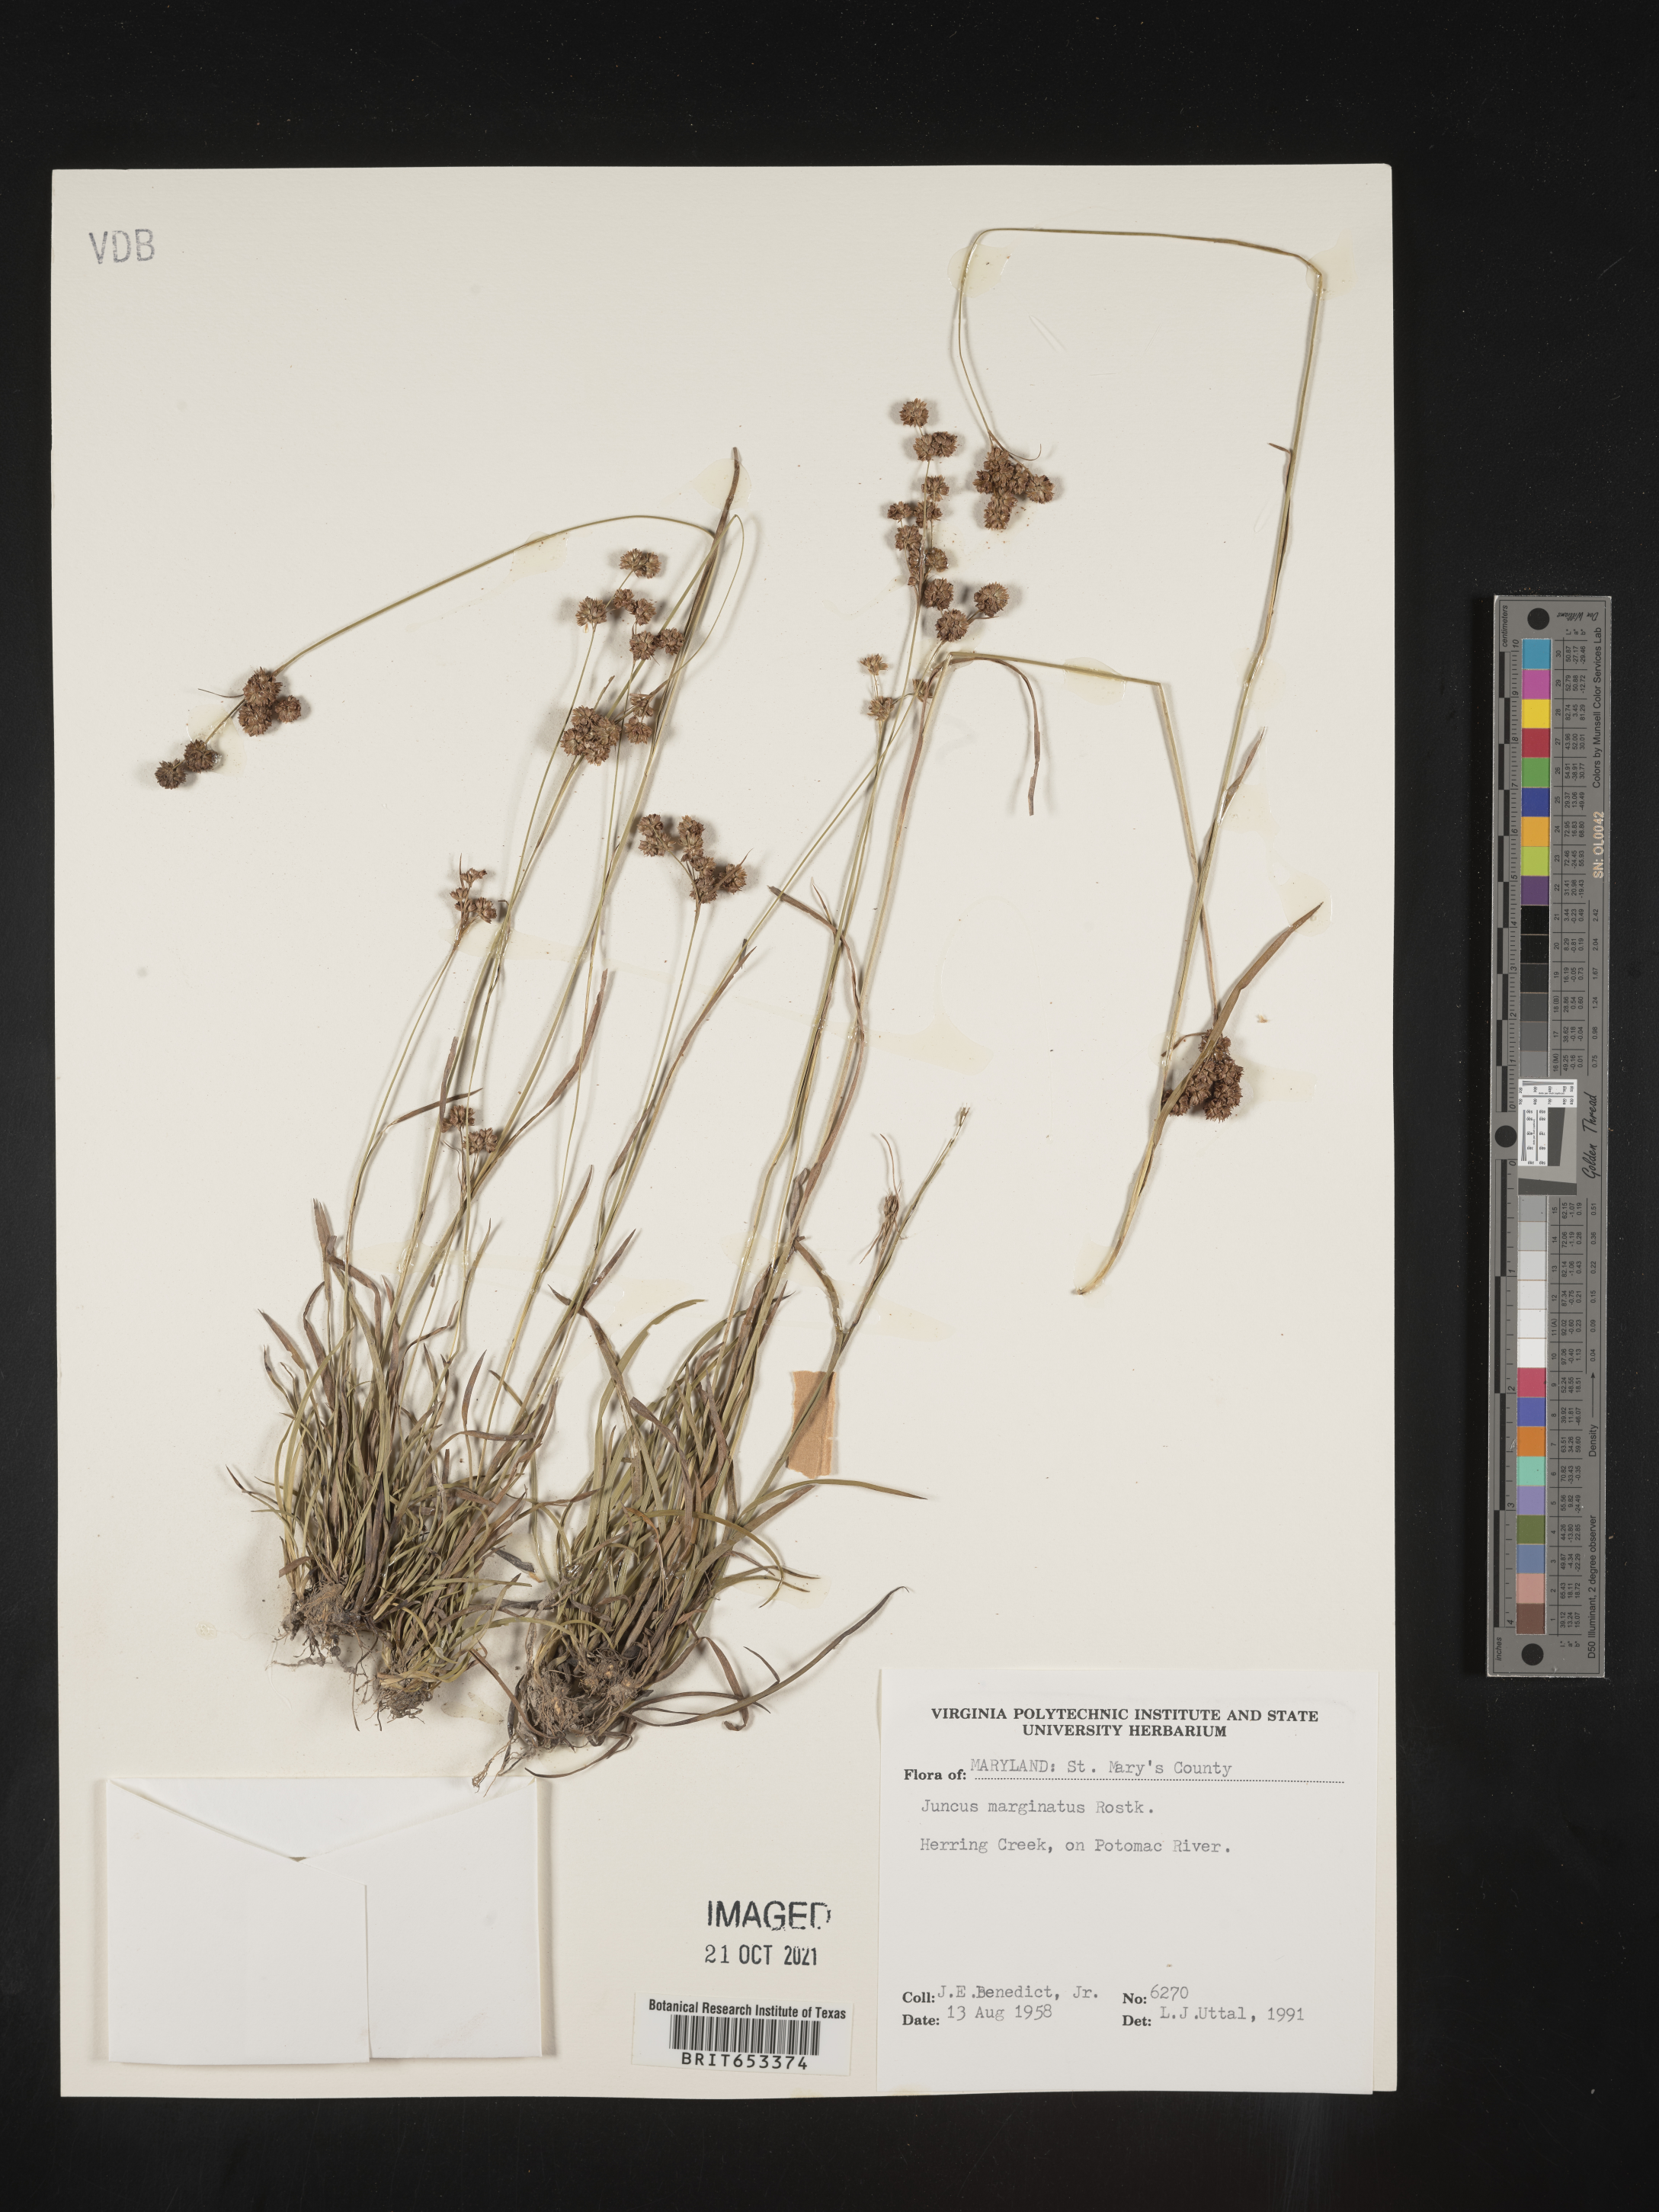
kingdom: Plantae
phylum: Tracheophyta
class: Liliopsida
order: Poales
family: Juncaceae
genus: Juncus
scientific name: Juncus marginatus
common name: Grass-leaf rush
